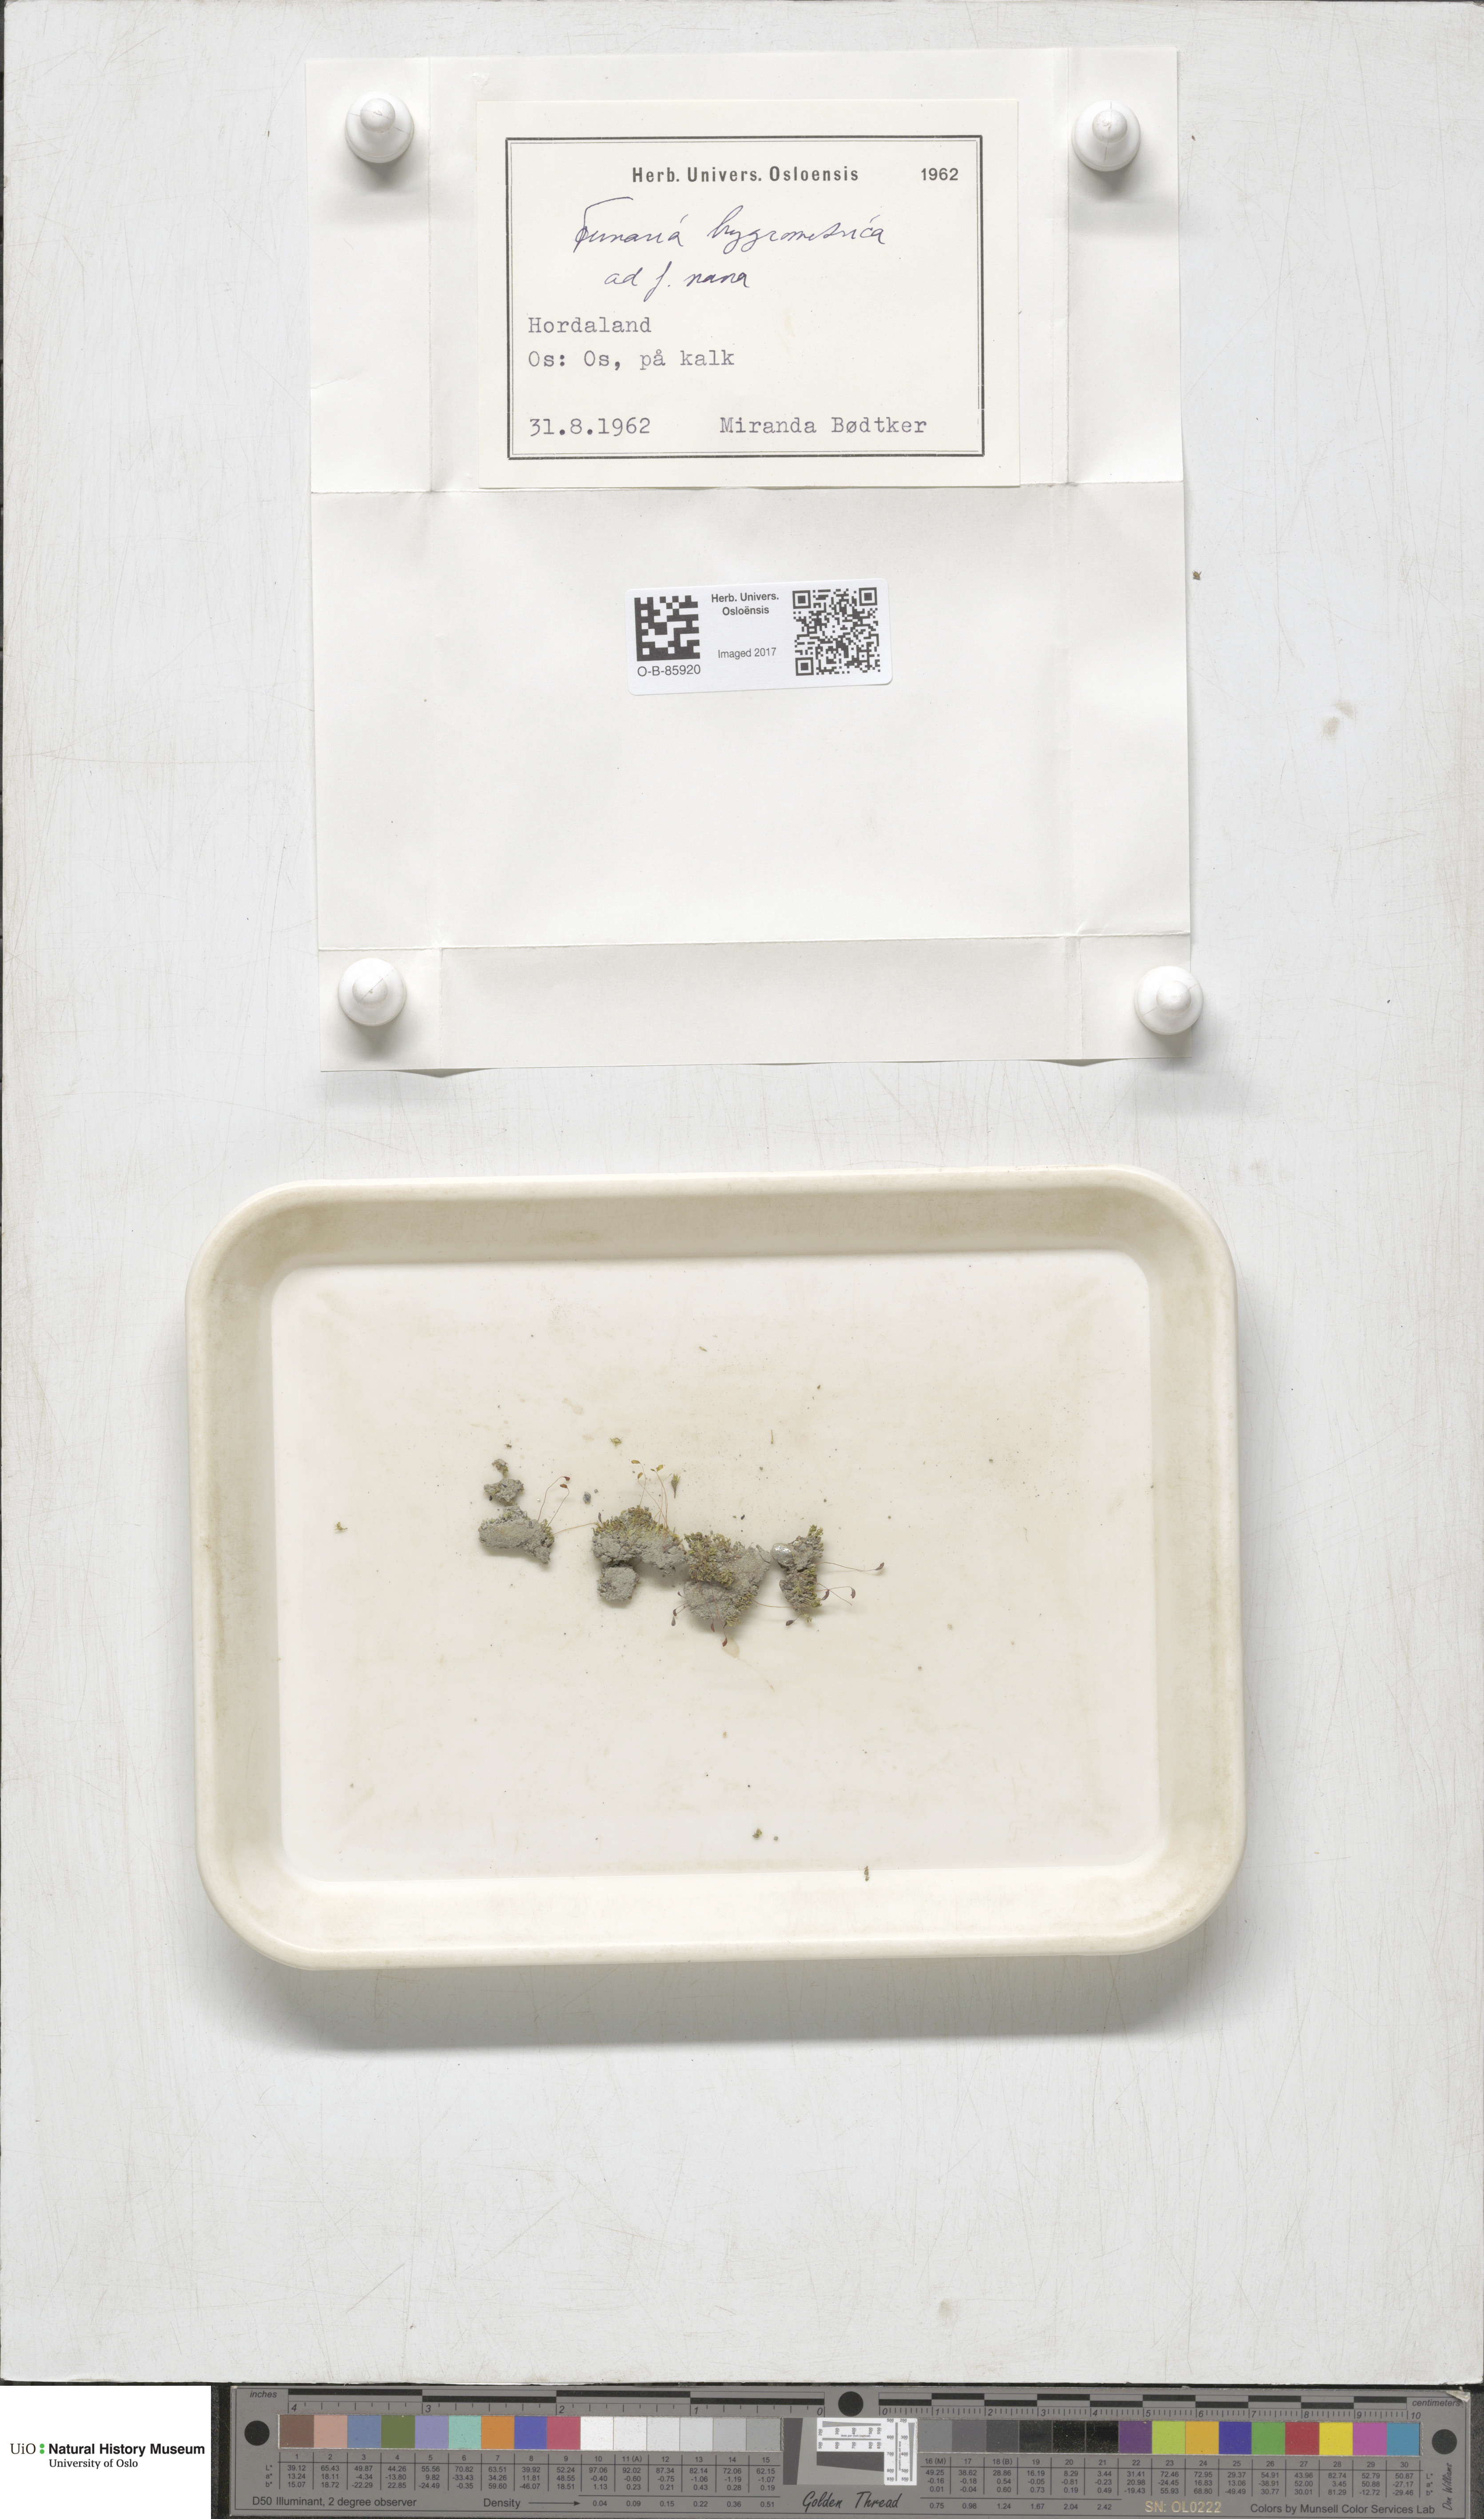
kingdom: Plantae
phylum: Bryophyta
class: Bryopsida
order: Funariales
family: Funariaceae
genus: Funaria
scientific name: Funaria hygrometrica
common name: Common cord moss
